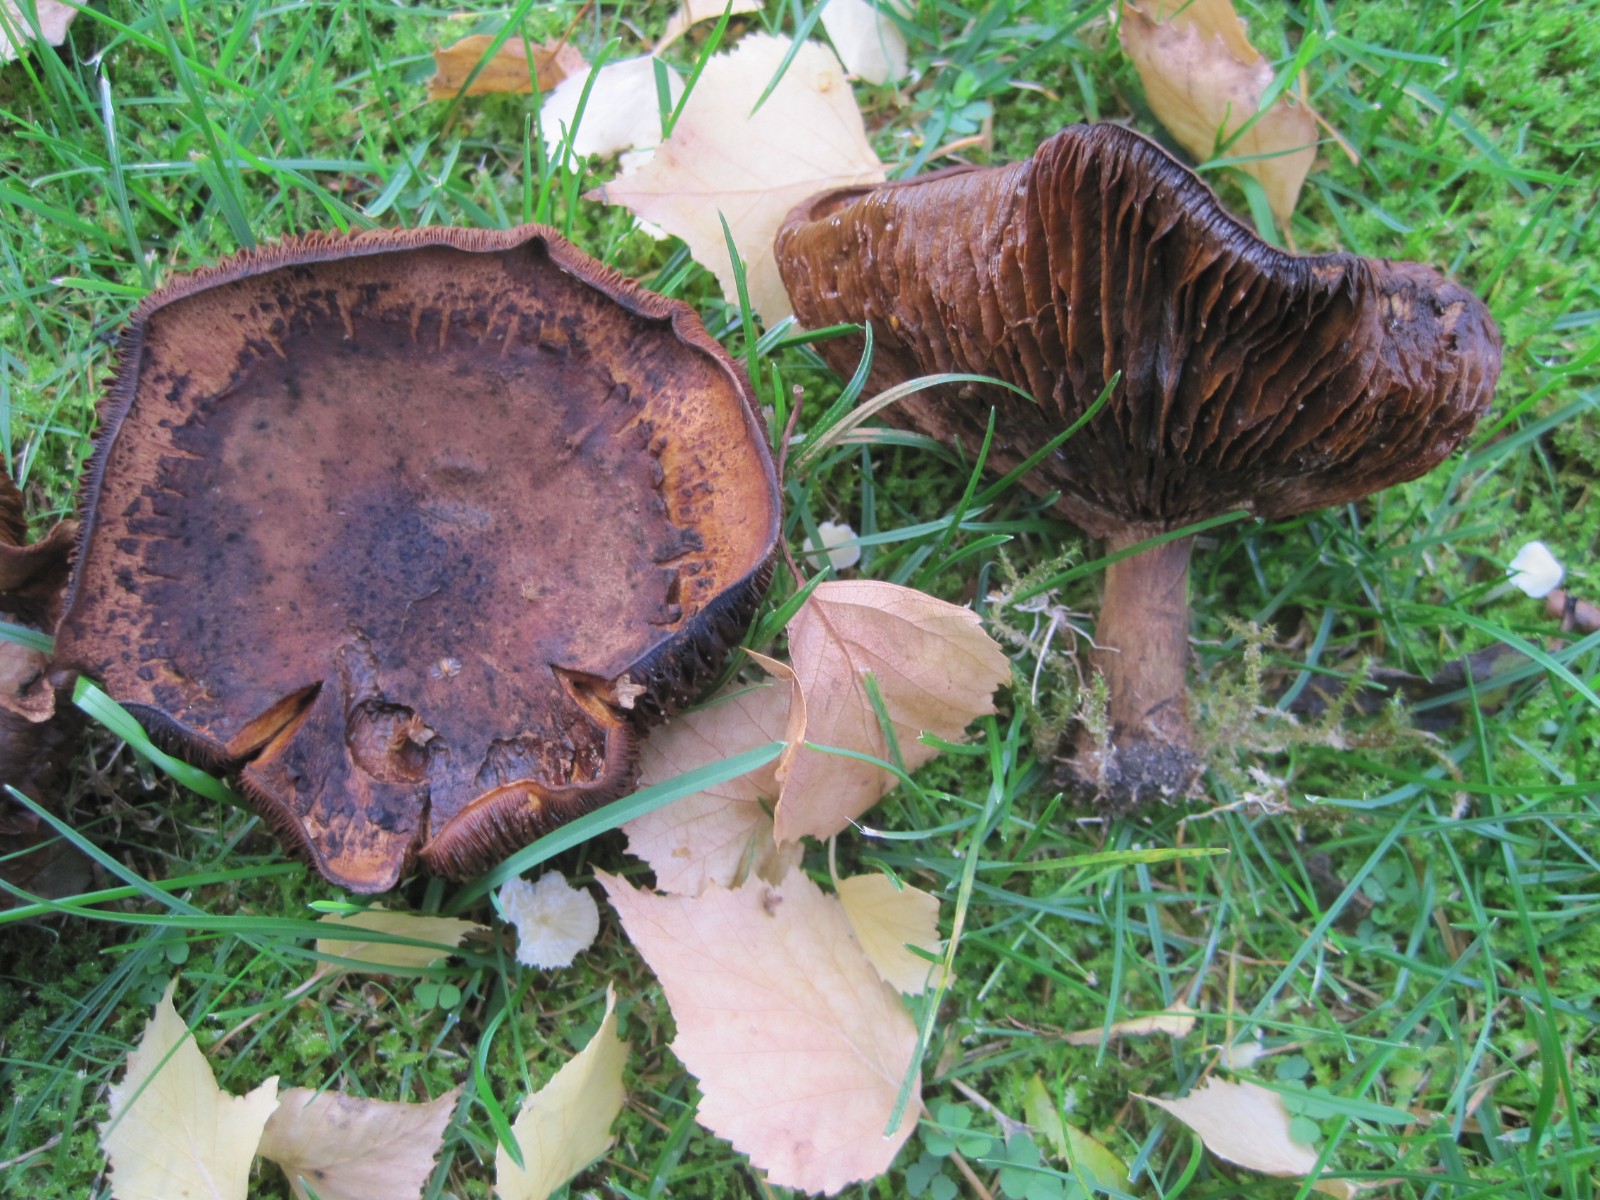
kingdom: Fungi
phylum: Basidiomycota
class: Agaricomycetes
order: Boletales
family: Paxillaceae
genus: Paxillus
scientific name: Paxillus obscurisporus
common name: mahognisporet netbladhat
